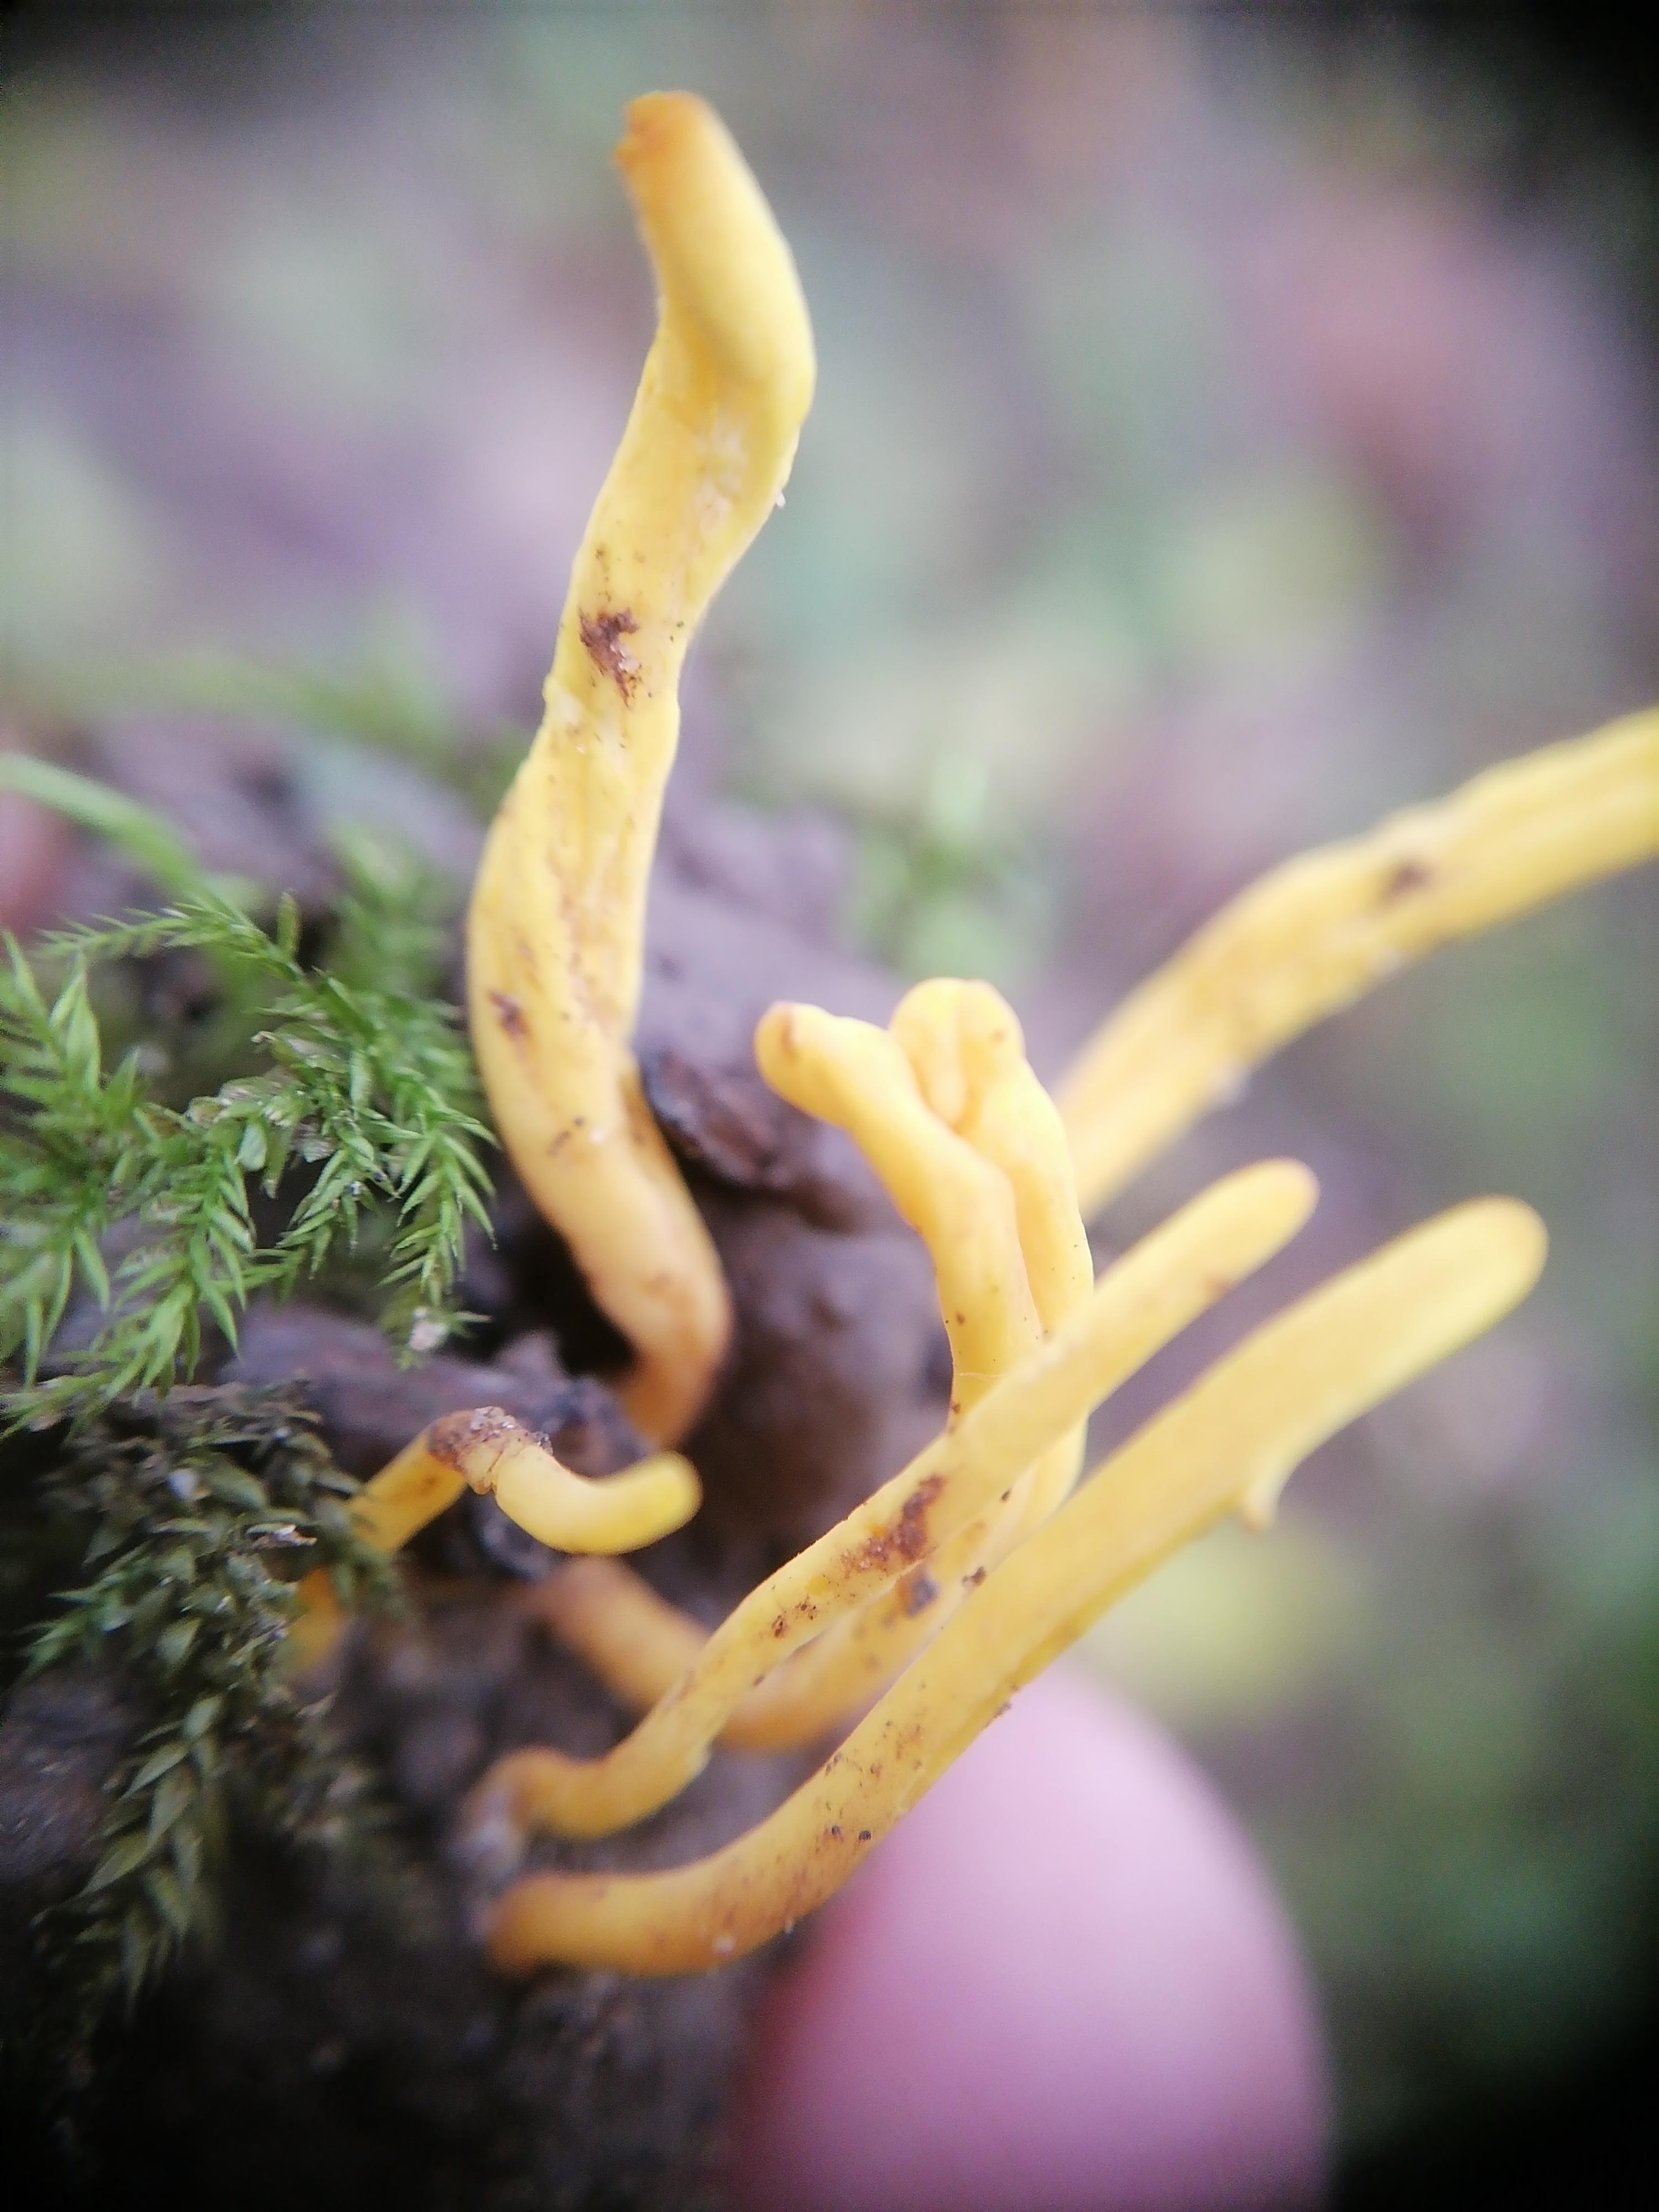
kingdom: Fungi
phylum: Basidiomycota
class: Agaricomycetes
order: Agaricales
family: Clavariaceae
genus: Clavulinopsis
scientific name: Clavulinopsis
